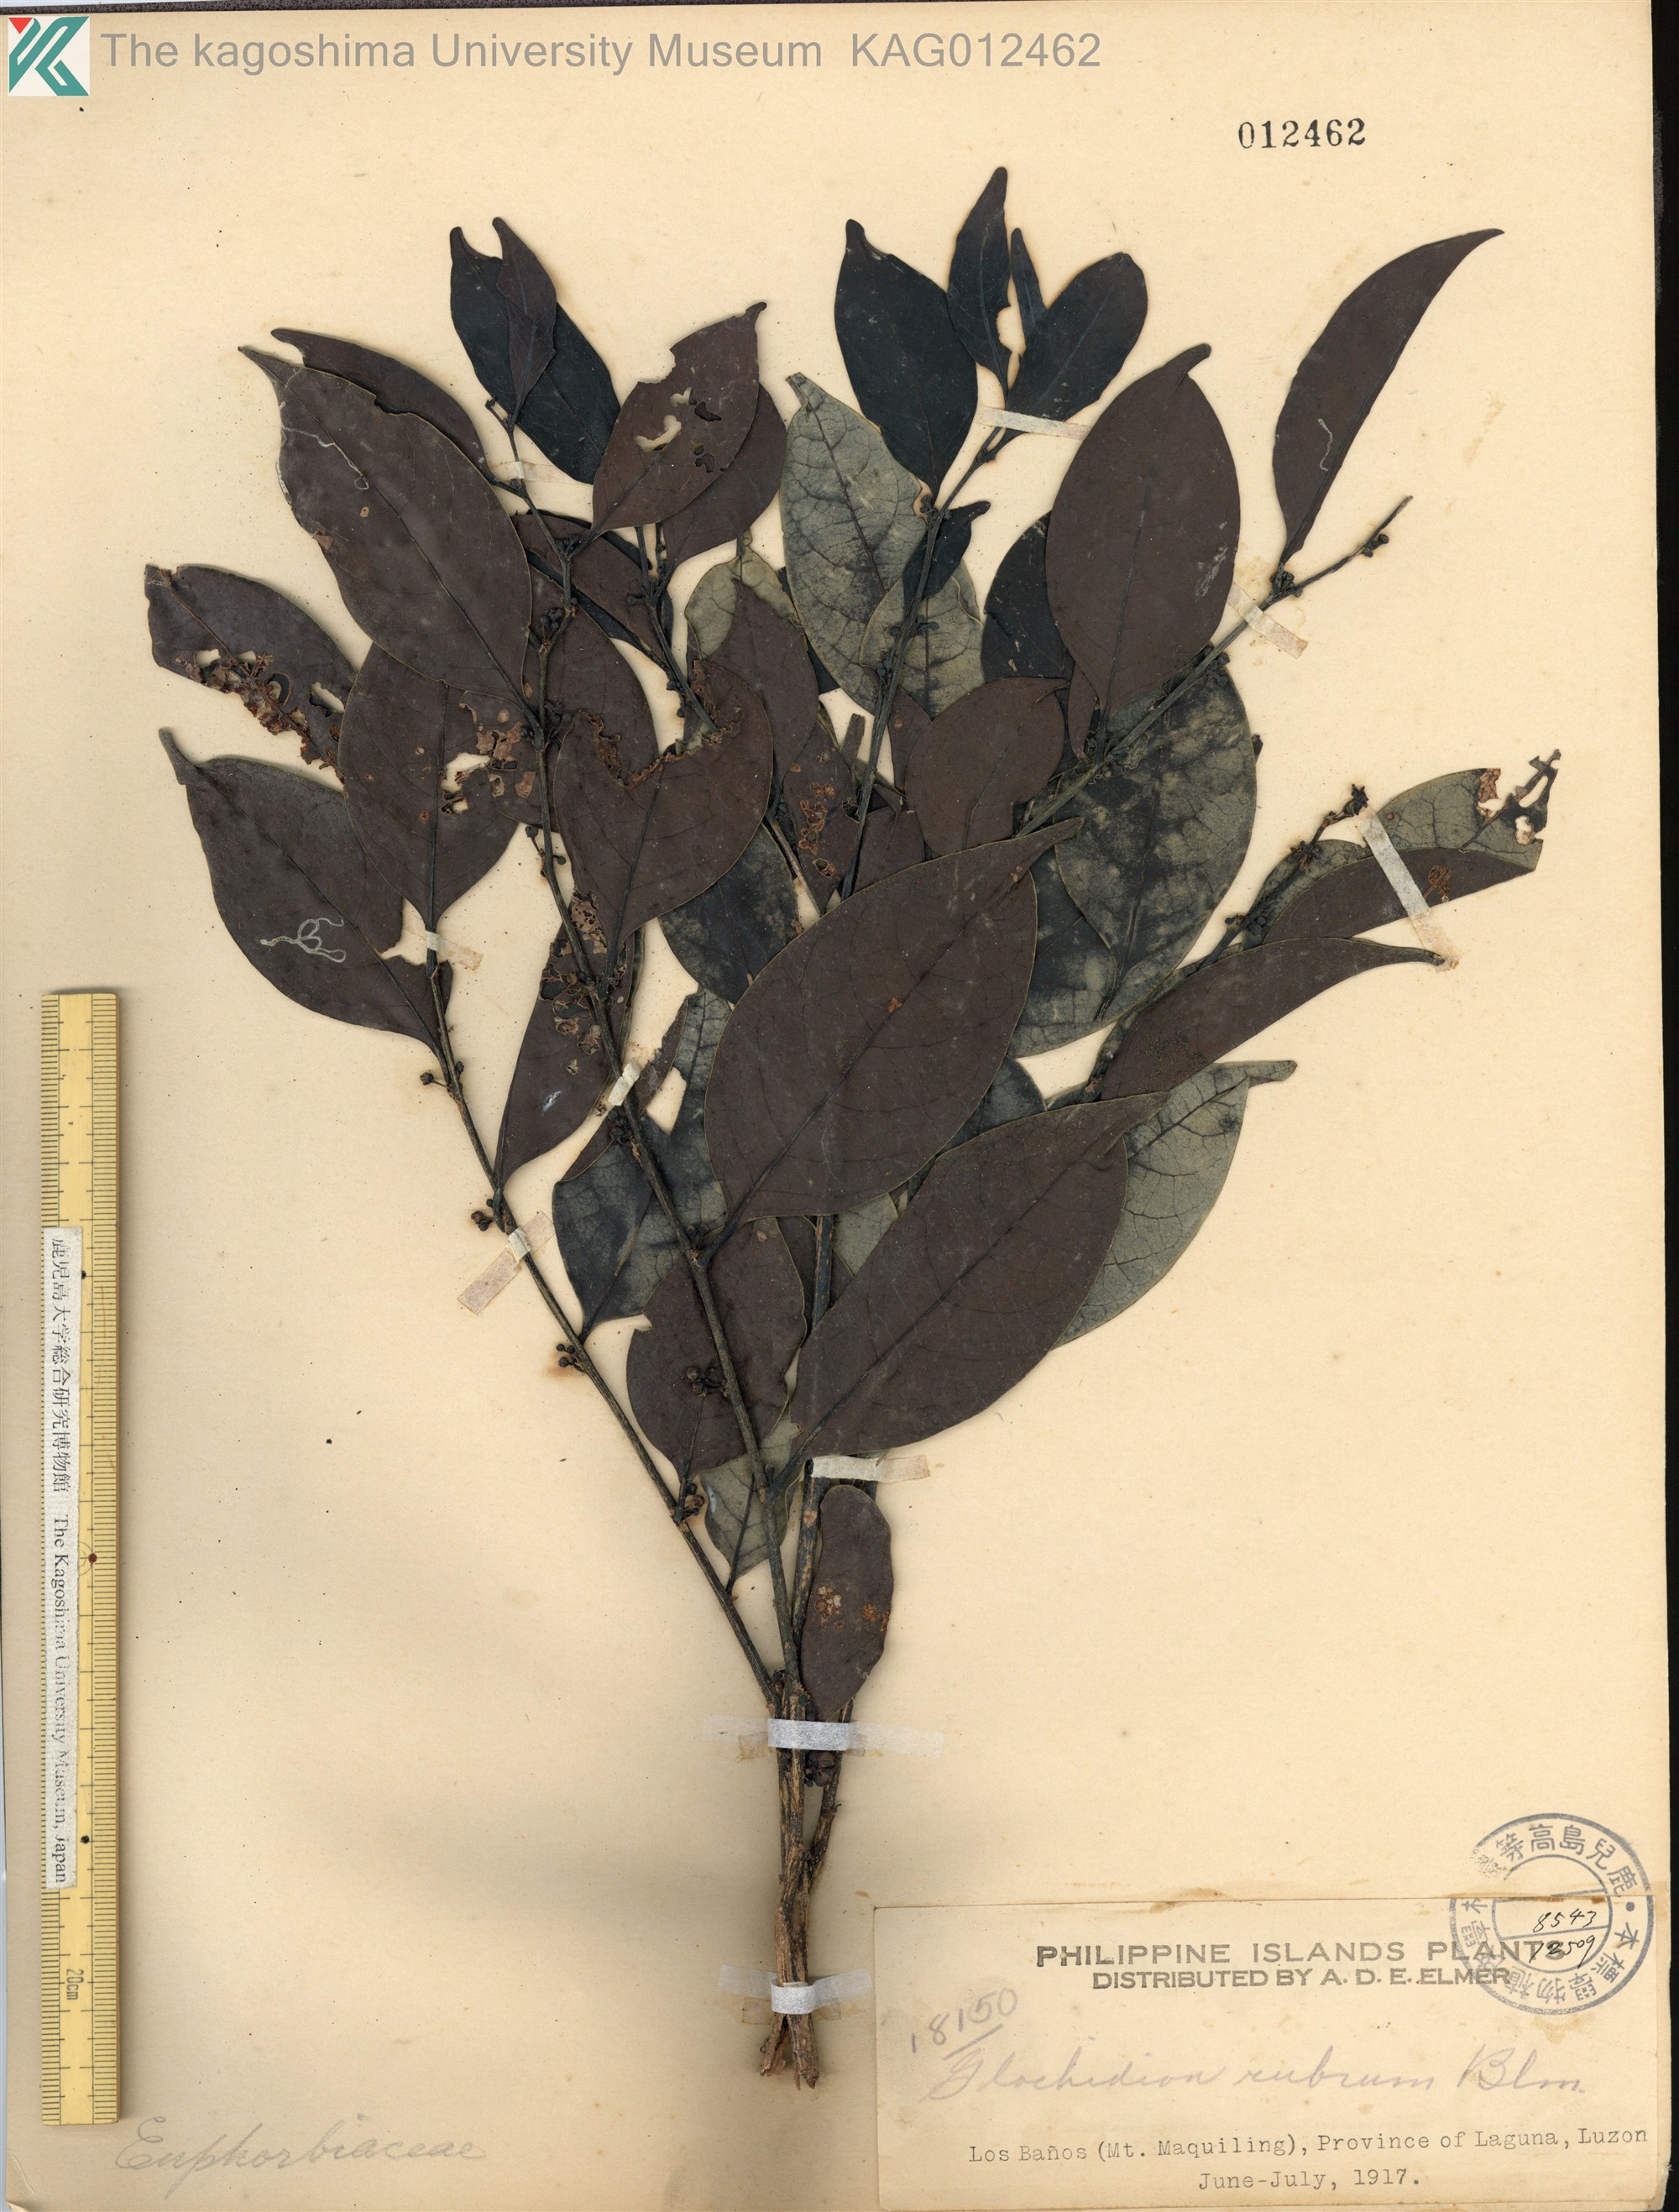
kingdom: Plantae
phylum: Tracheophyta
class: Magnoliopsida
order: Malpighiales
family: Phyllanthaceae
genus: Glochidion
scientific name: Glochidion rubrum
